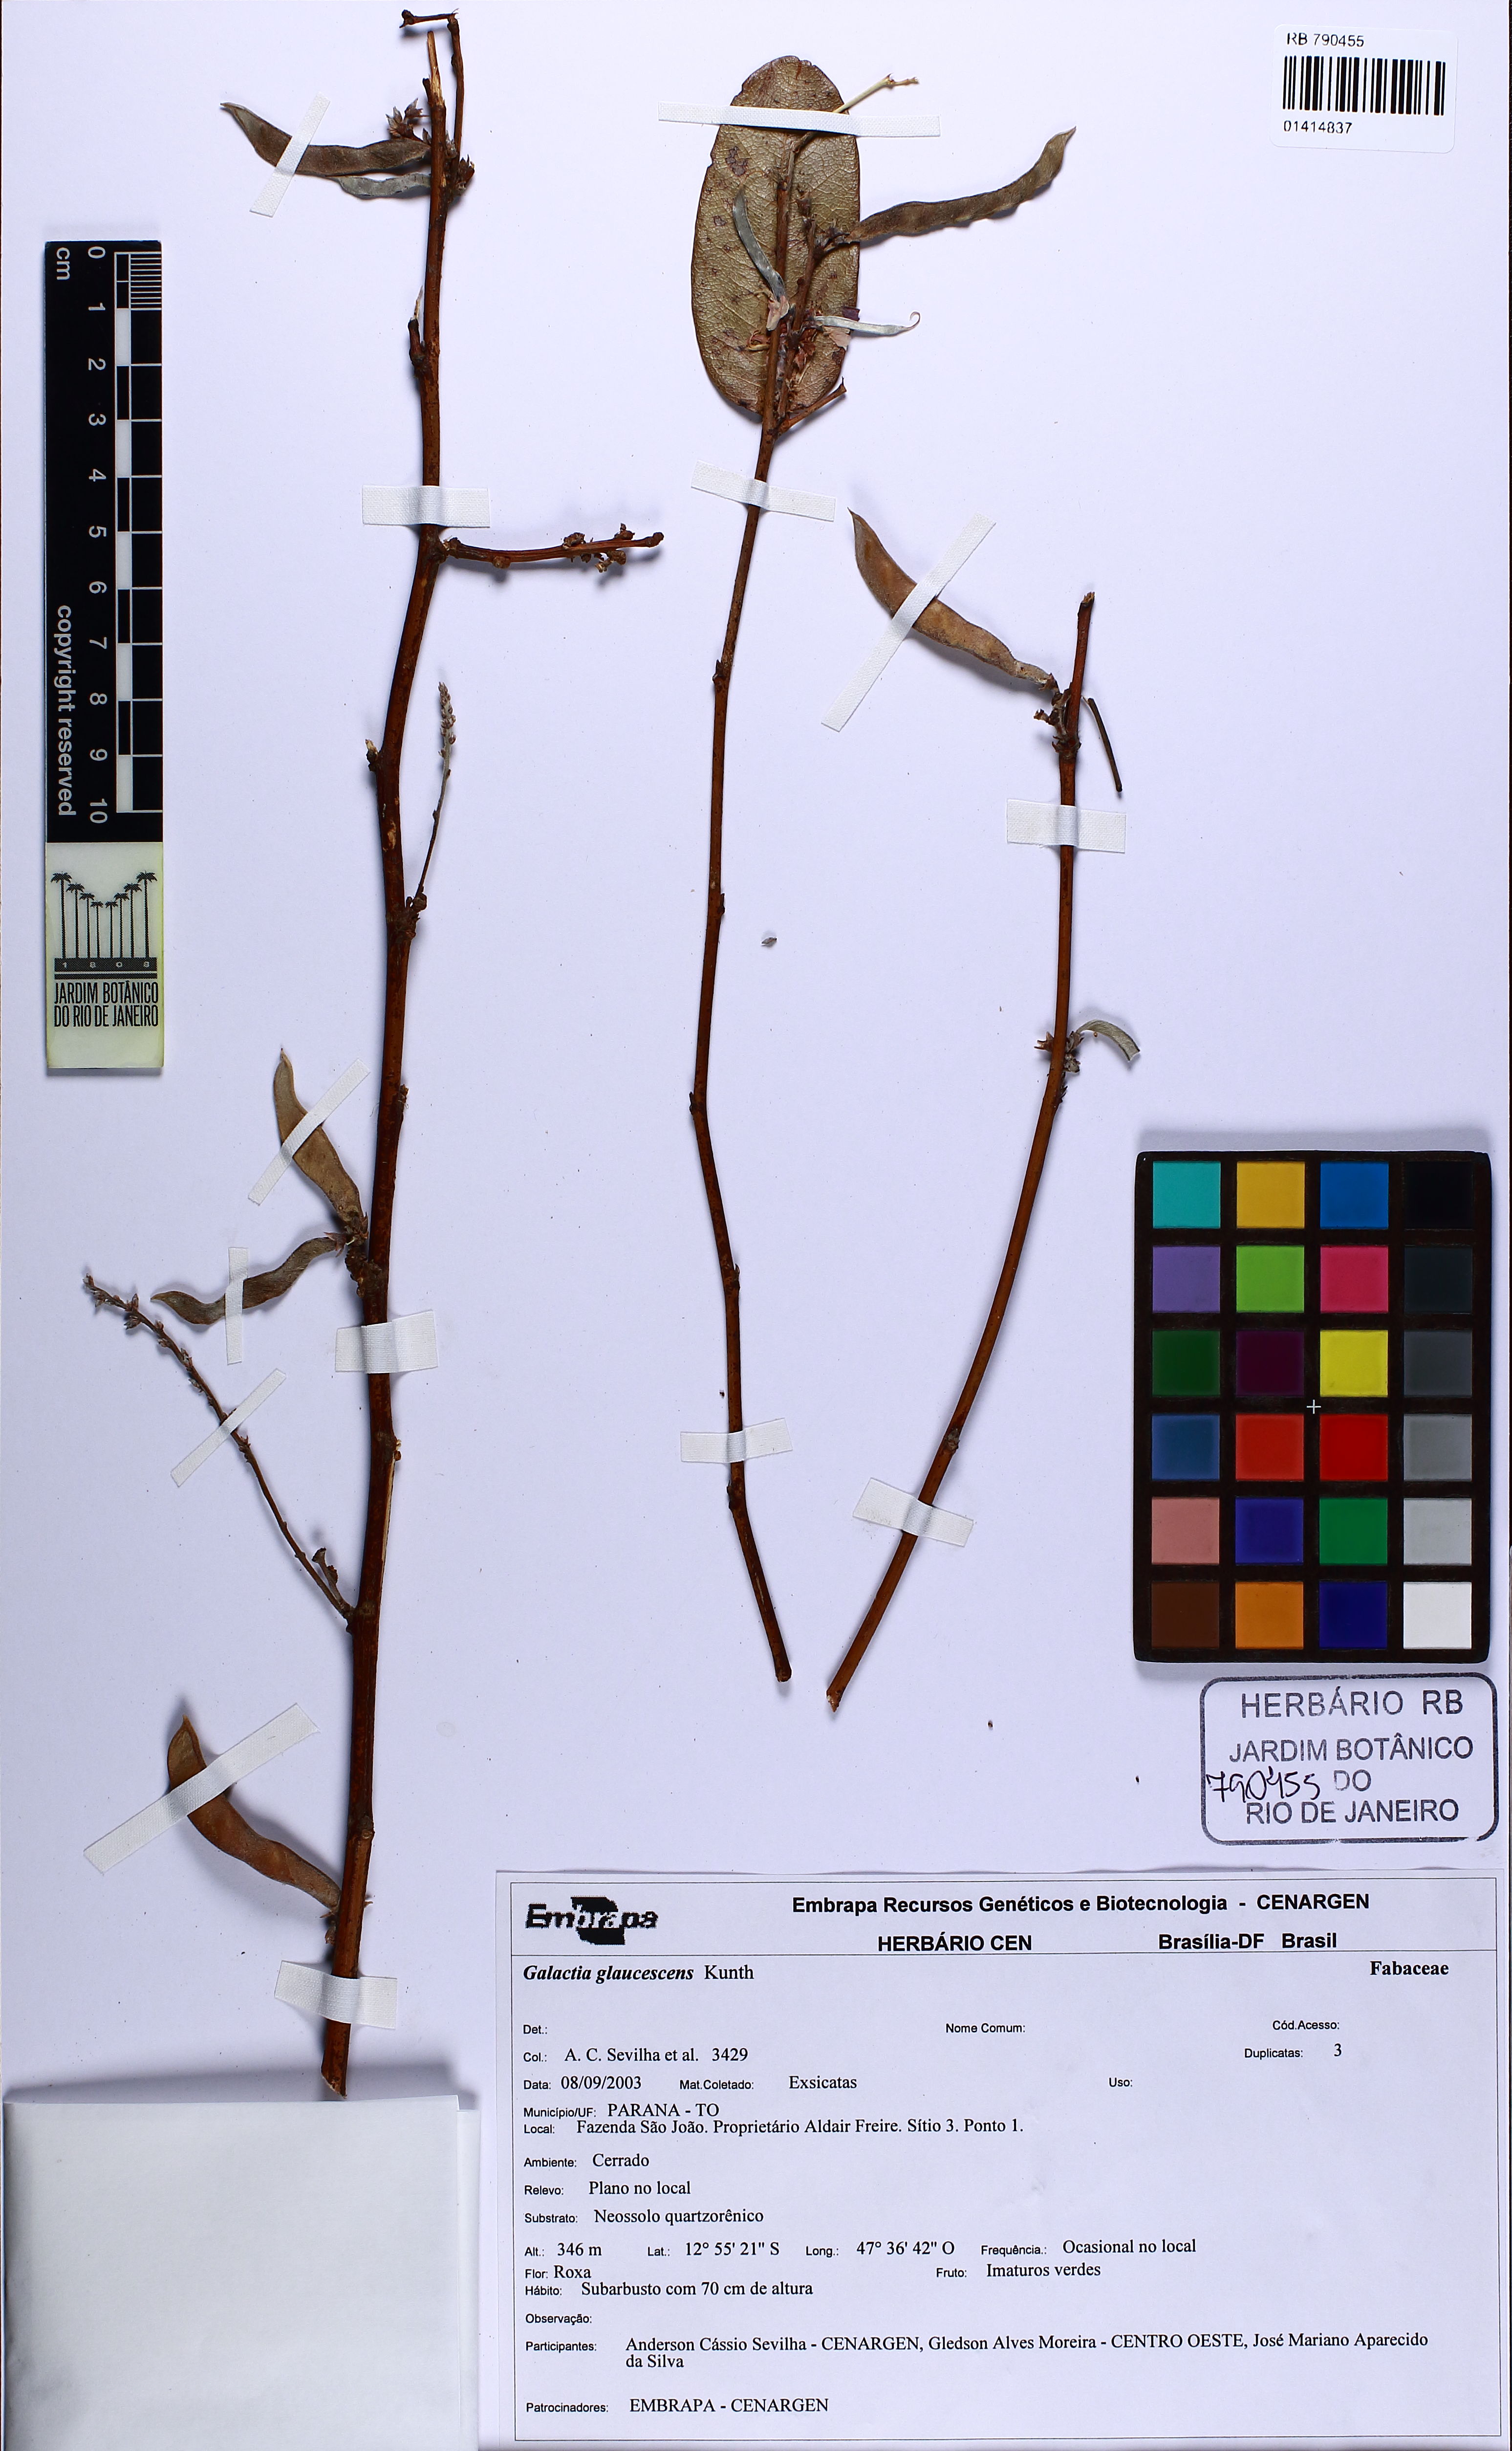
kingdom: Plantae
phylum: Tracheophyta
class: Magnoliopsida
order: Fabales
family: Fabaceae
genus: Galactia
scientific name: Galactia glaucescens
